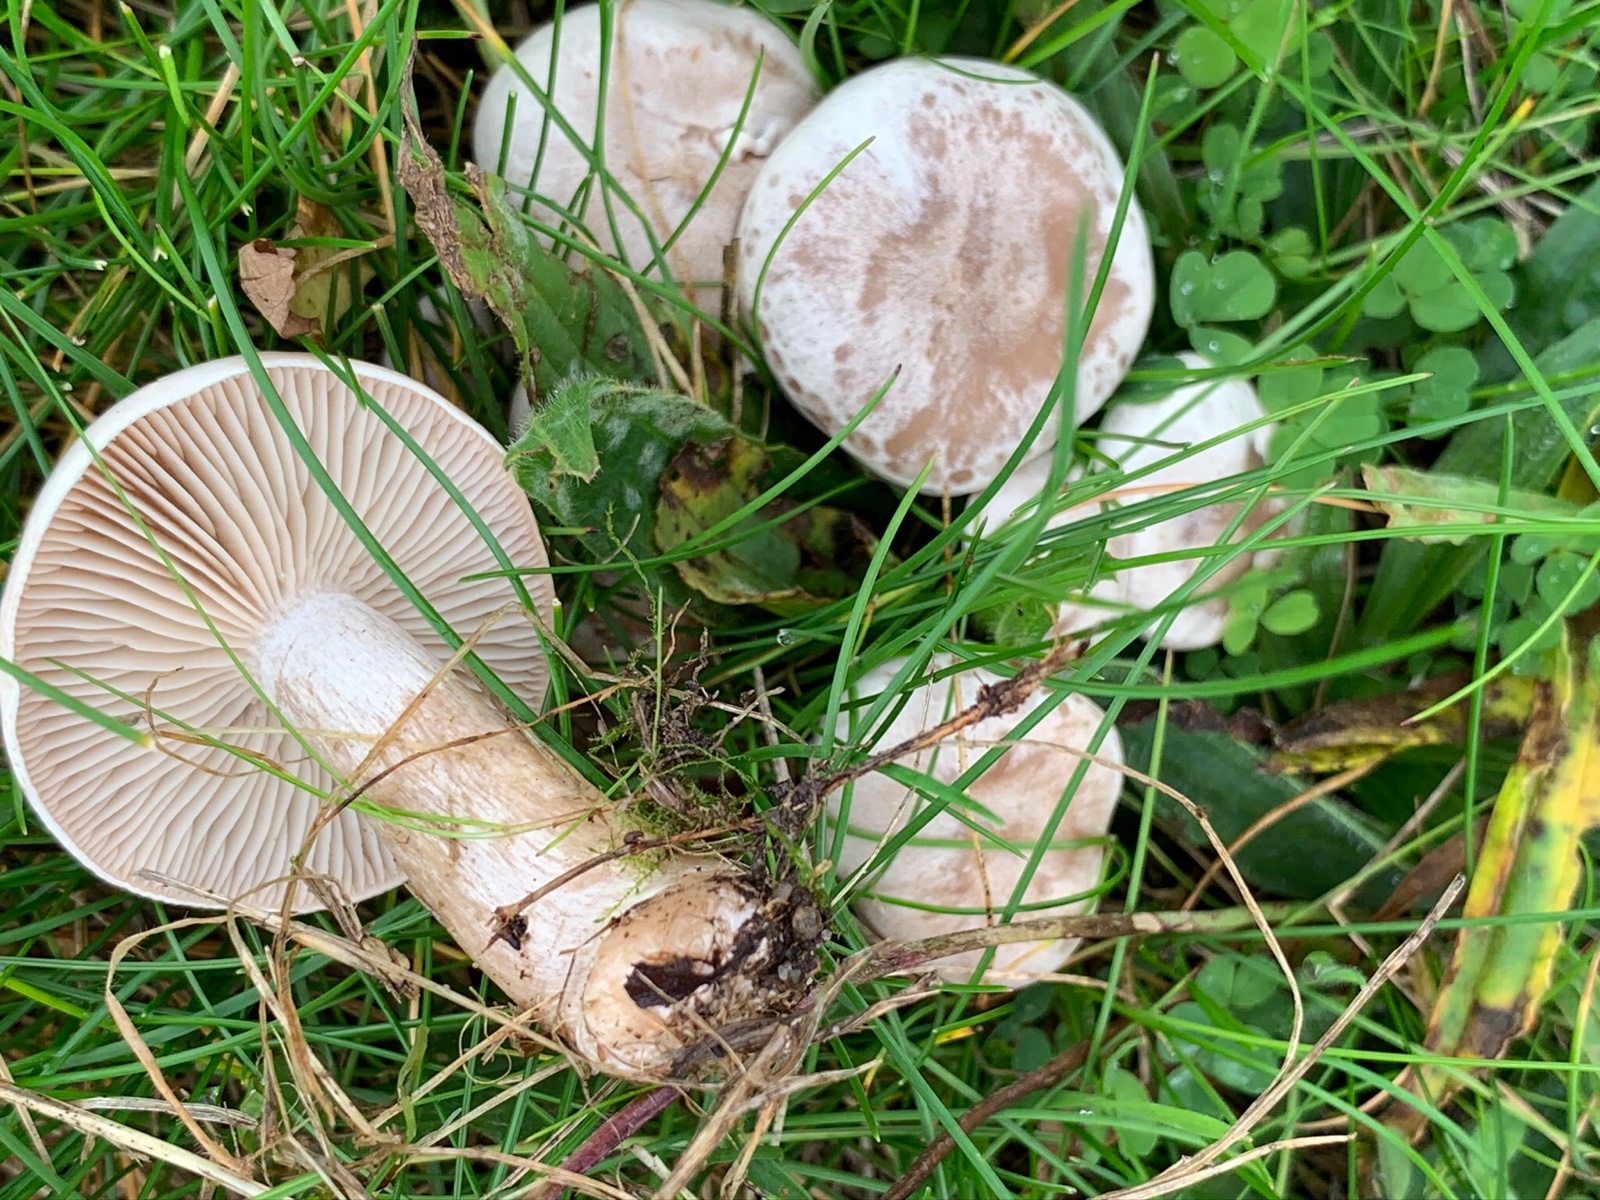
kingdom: Fungi
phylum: Basidiomycota
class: Agaricomycetes
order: Agaricales
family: Tricholomataceae
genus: Clitocybe
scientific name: Clitocybe rivulosa
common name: eng-tragthat
